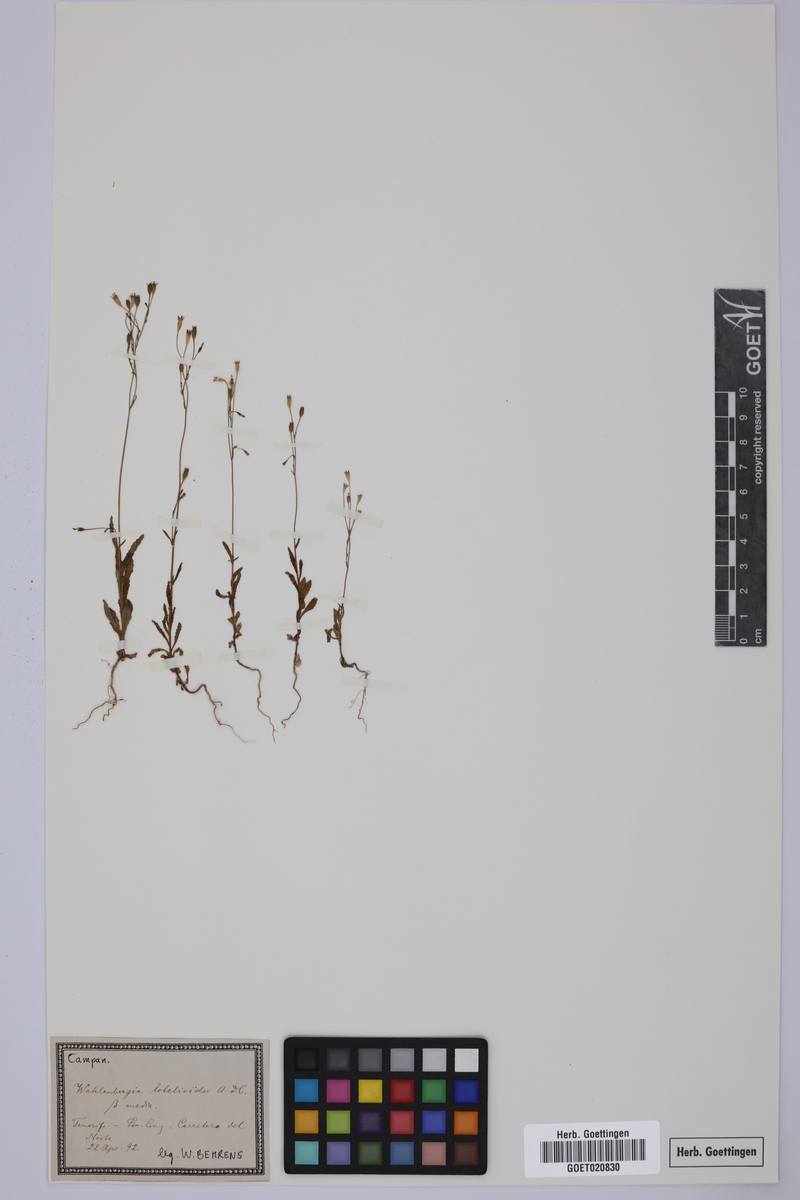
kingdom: Plantae
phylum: Tracheophyta
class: Magnoliopsida
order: Asterales
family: Campanulaceae
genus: Wahlenbergia
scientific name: Wahlenbergia lobelioides
